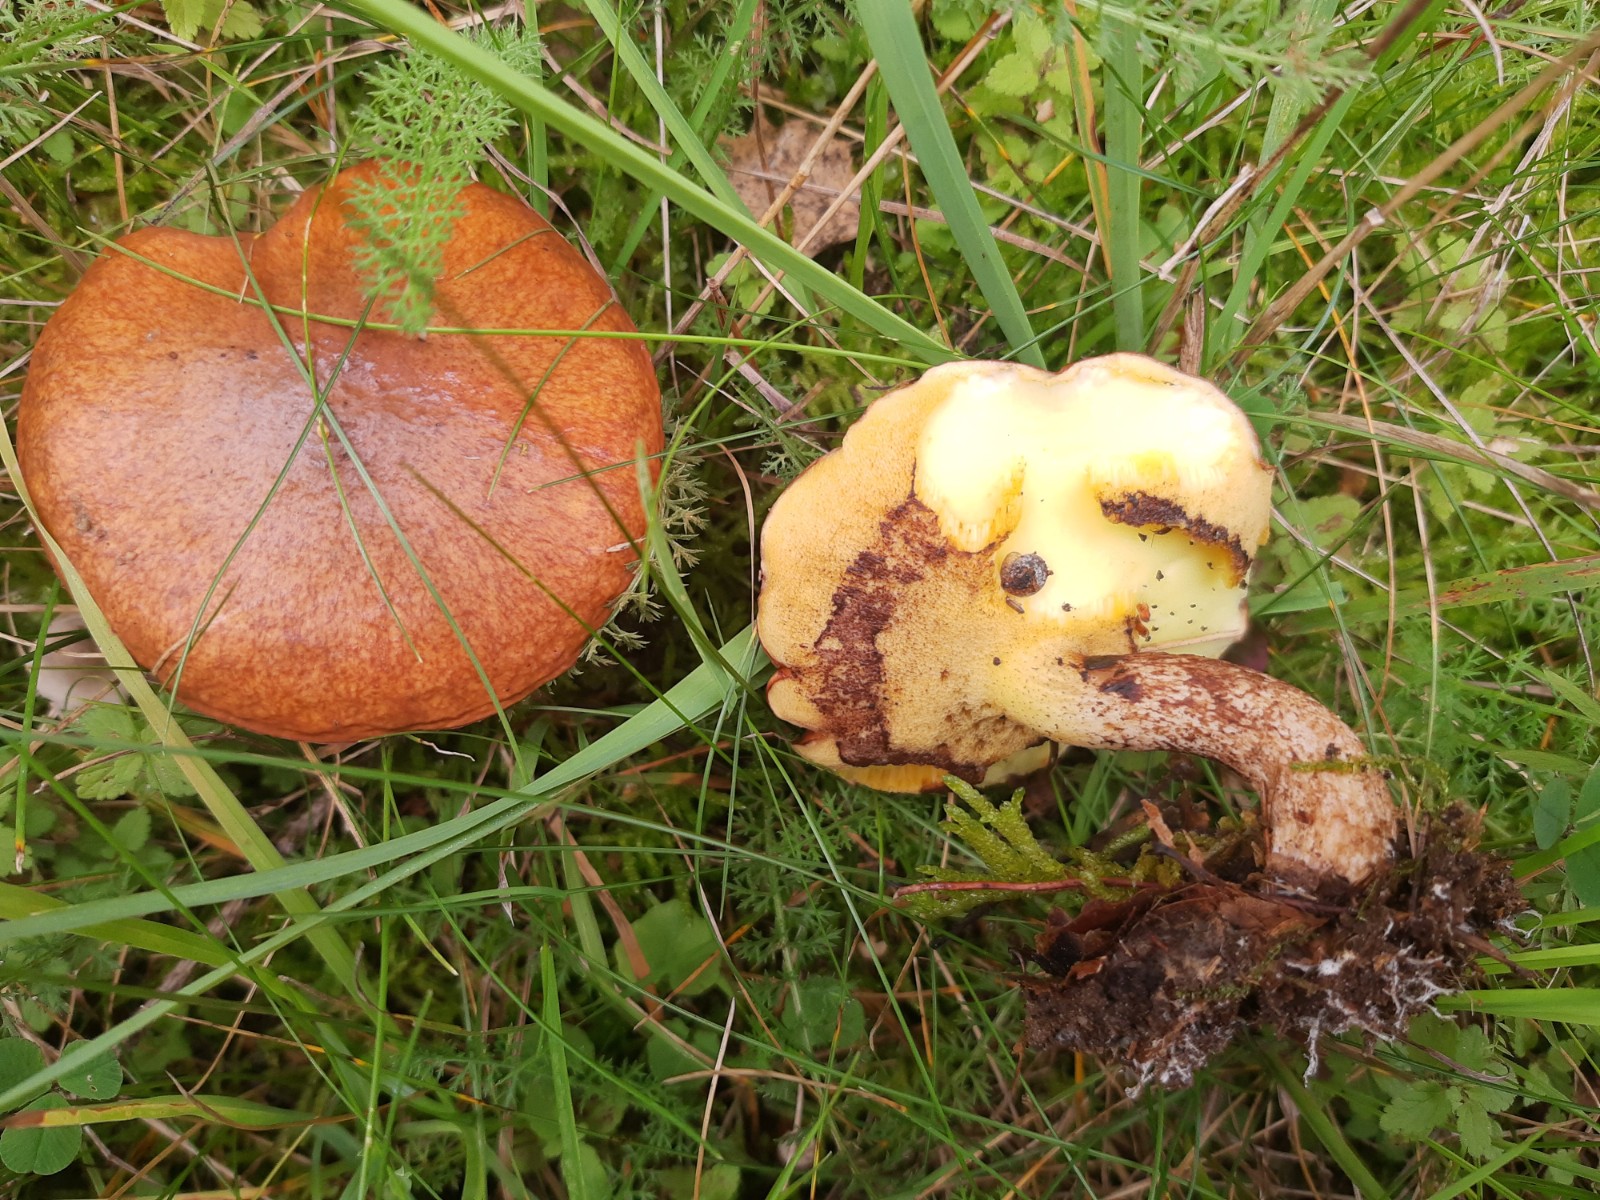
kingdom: Fungi
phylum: Basidiomycota
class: Agaricomycetes
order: Boletales
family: Suillaceae
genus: Suillus
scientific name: Suillus granulatus
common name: kornet slimrørhat
